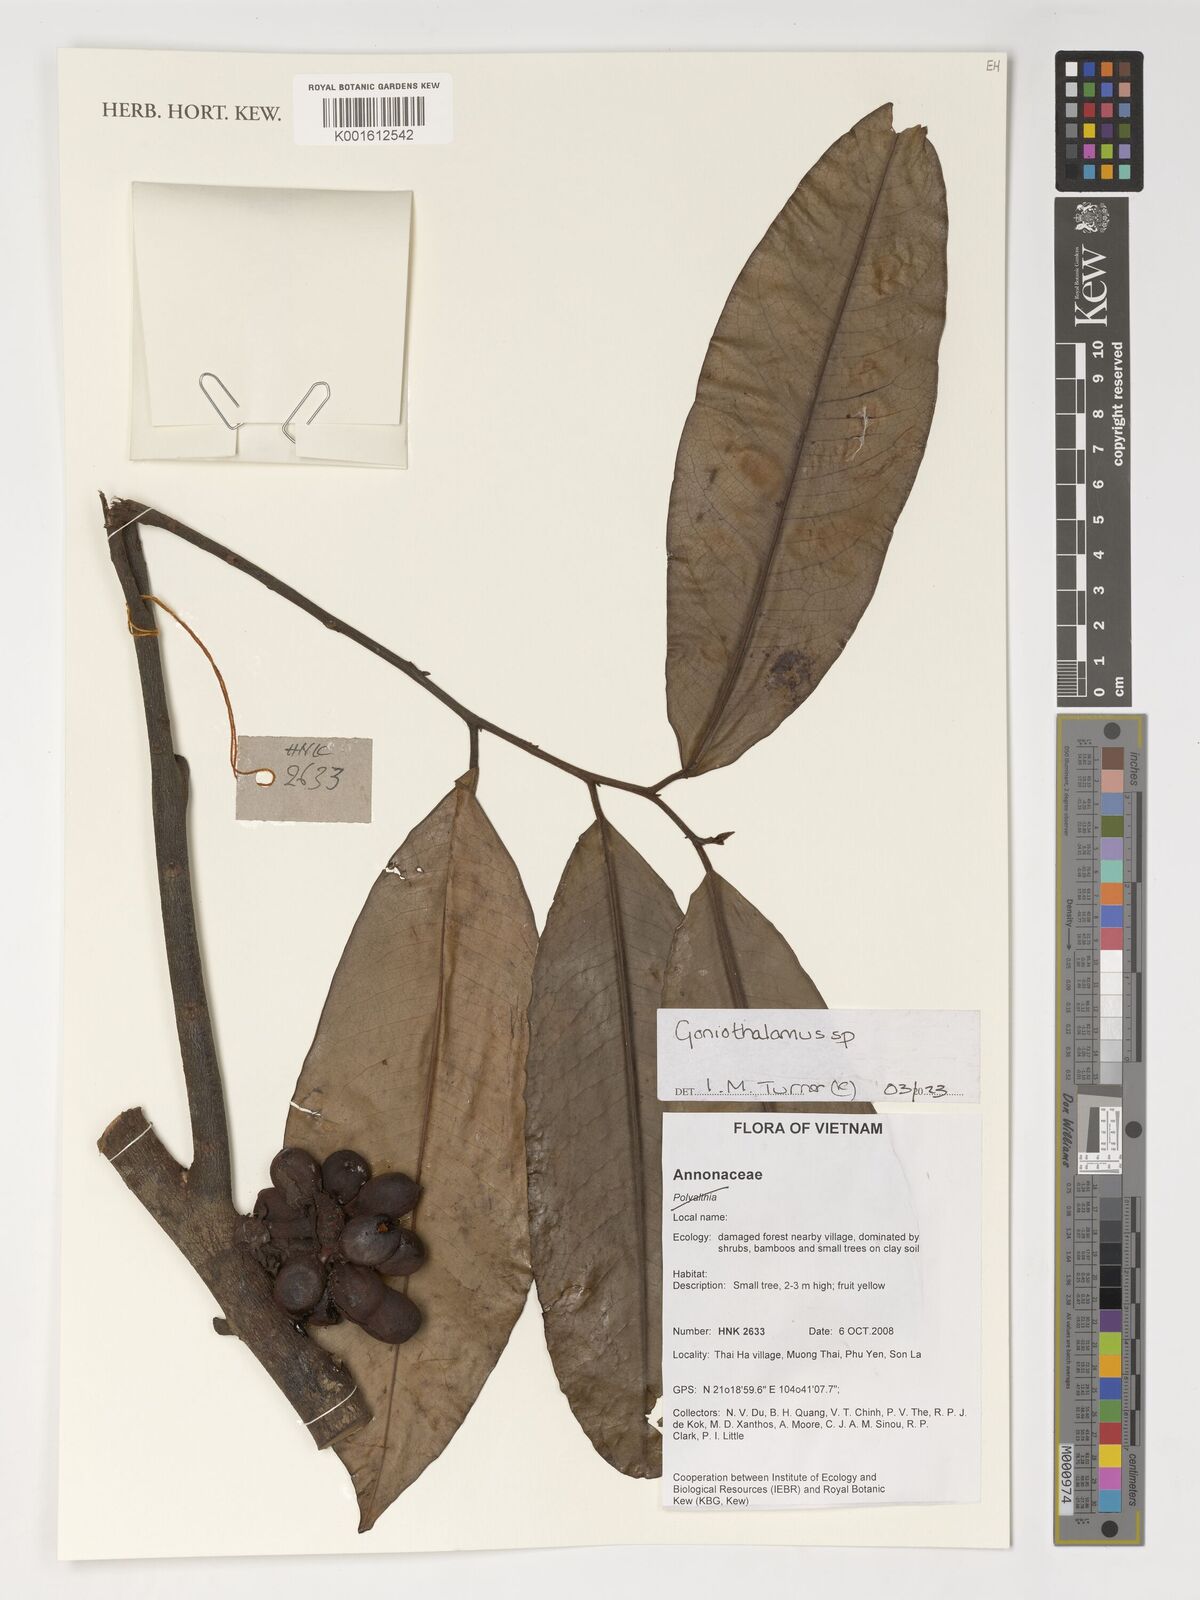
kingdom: Plantae
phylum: Tracheophyta
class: Magnoliopsida
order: Magnoliales
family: Annonaceae
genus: Goniothalamus
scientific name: Goniothalamus
